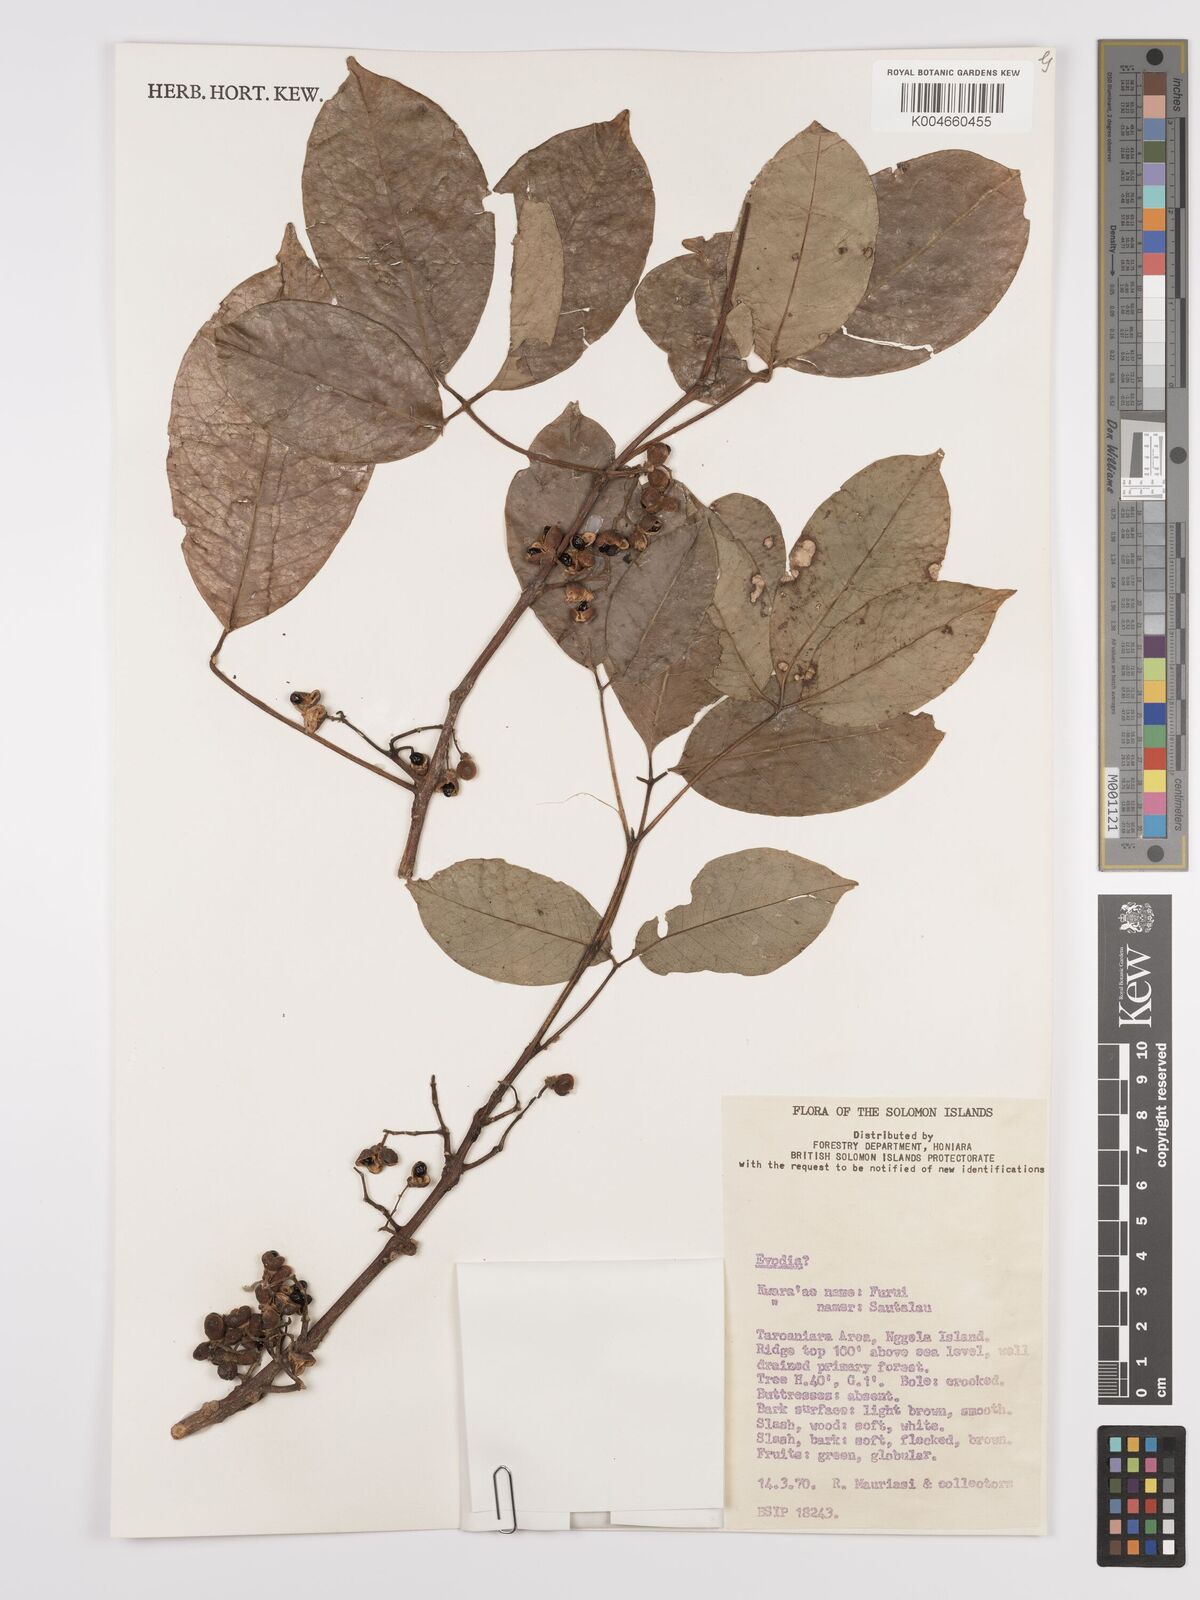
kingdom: Plantae
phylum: Tracheophyta
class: Magnoliopsida
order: Sapindales
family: Rutaceae
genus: Euodia
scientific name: Euodia
